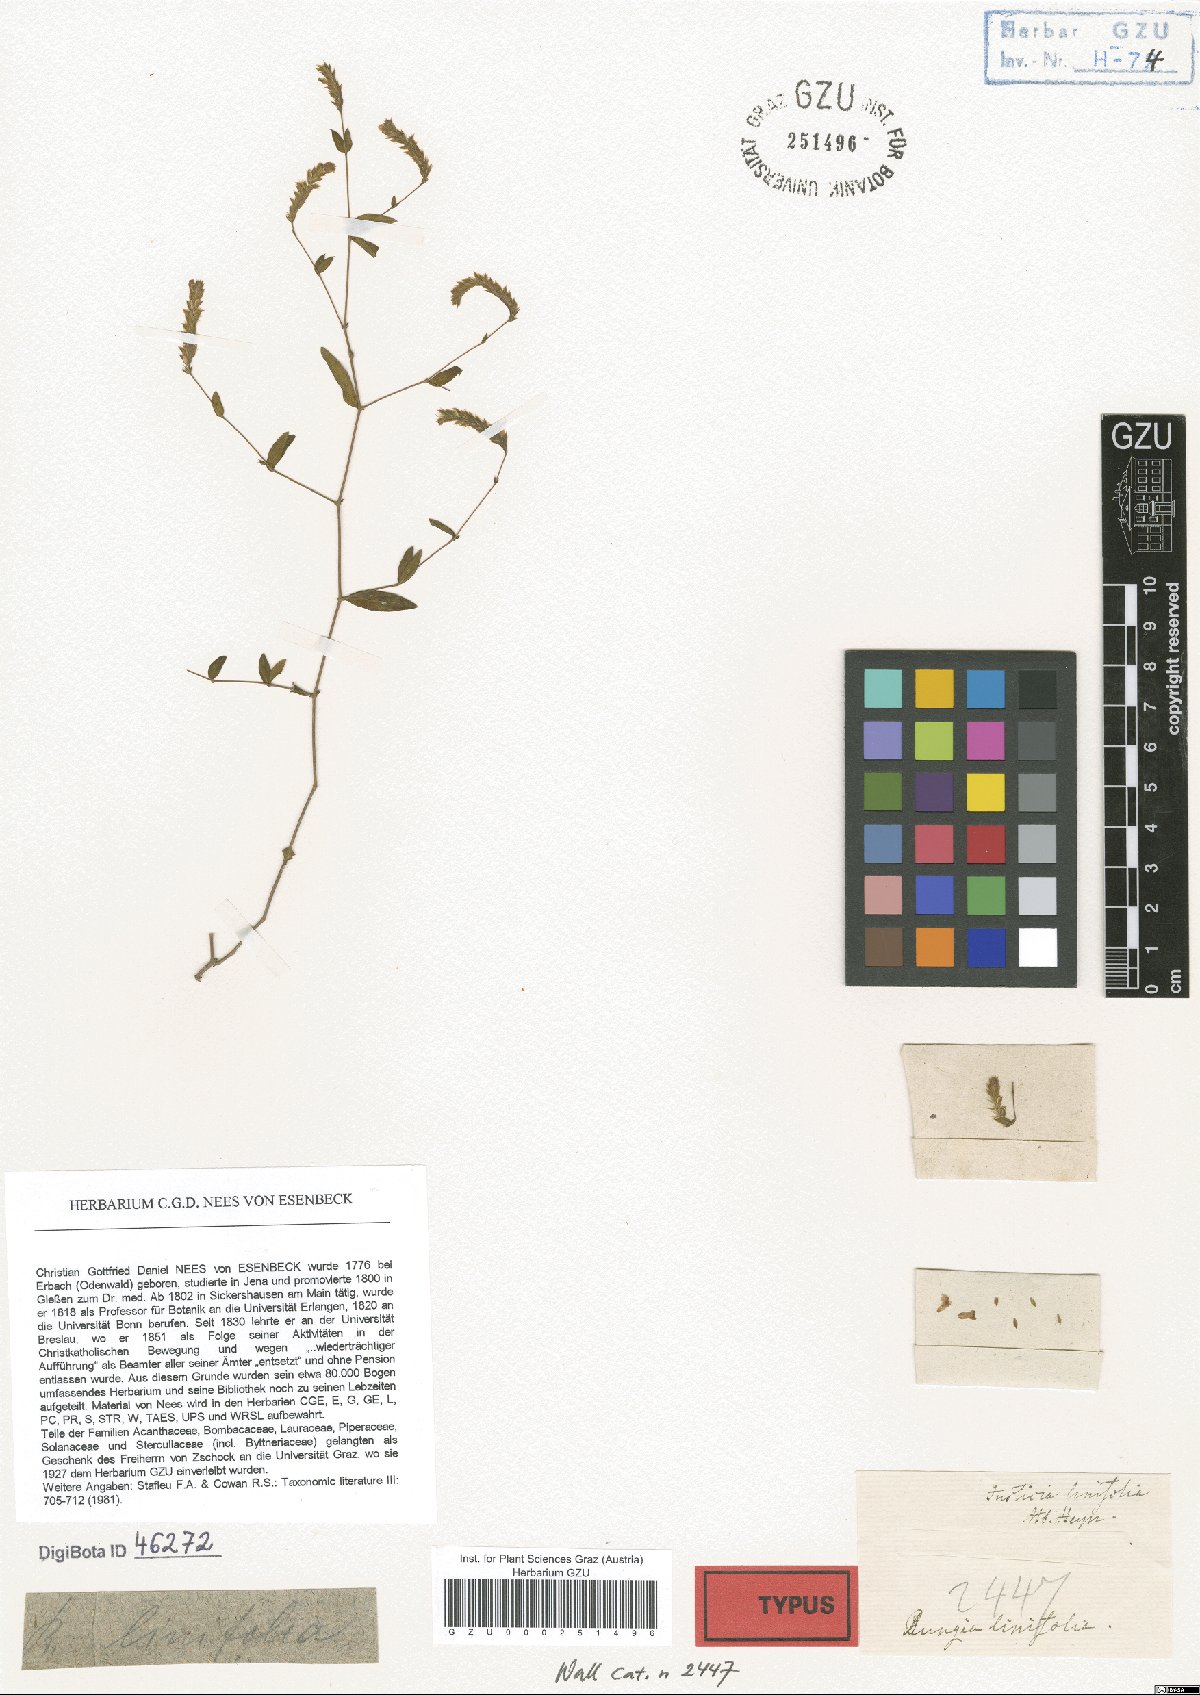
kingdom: Plantae
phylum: Tracheophyta
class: Magnoliopsida
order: Lamiales
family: Acanthaceae
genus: Rungia
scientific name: Rungia linifolia
